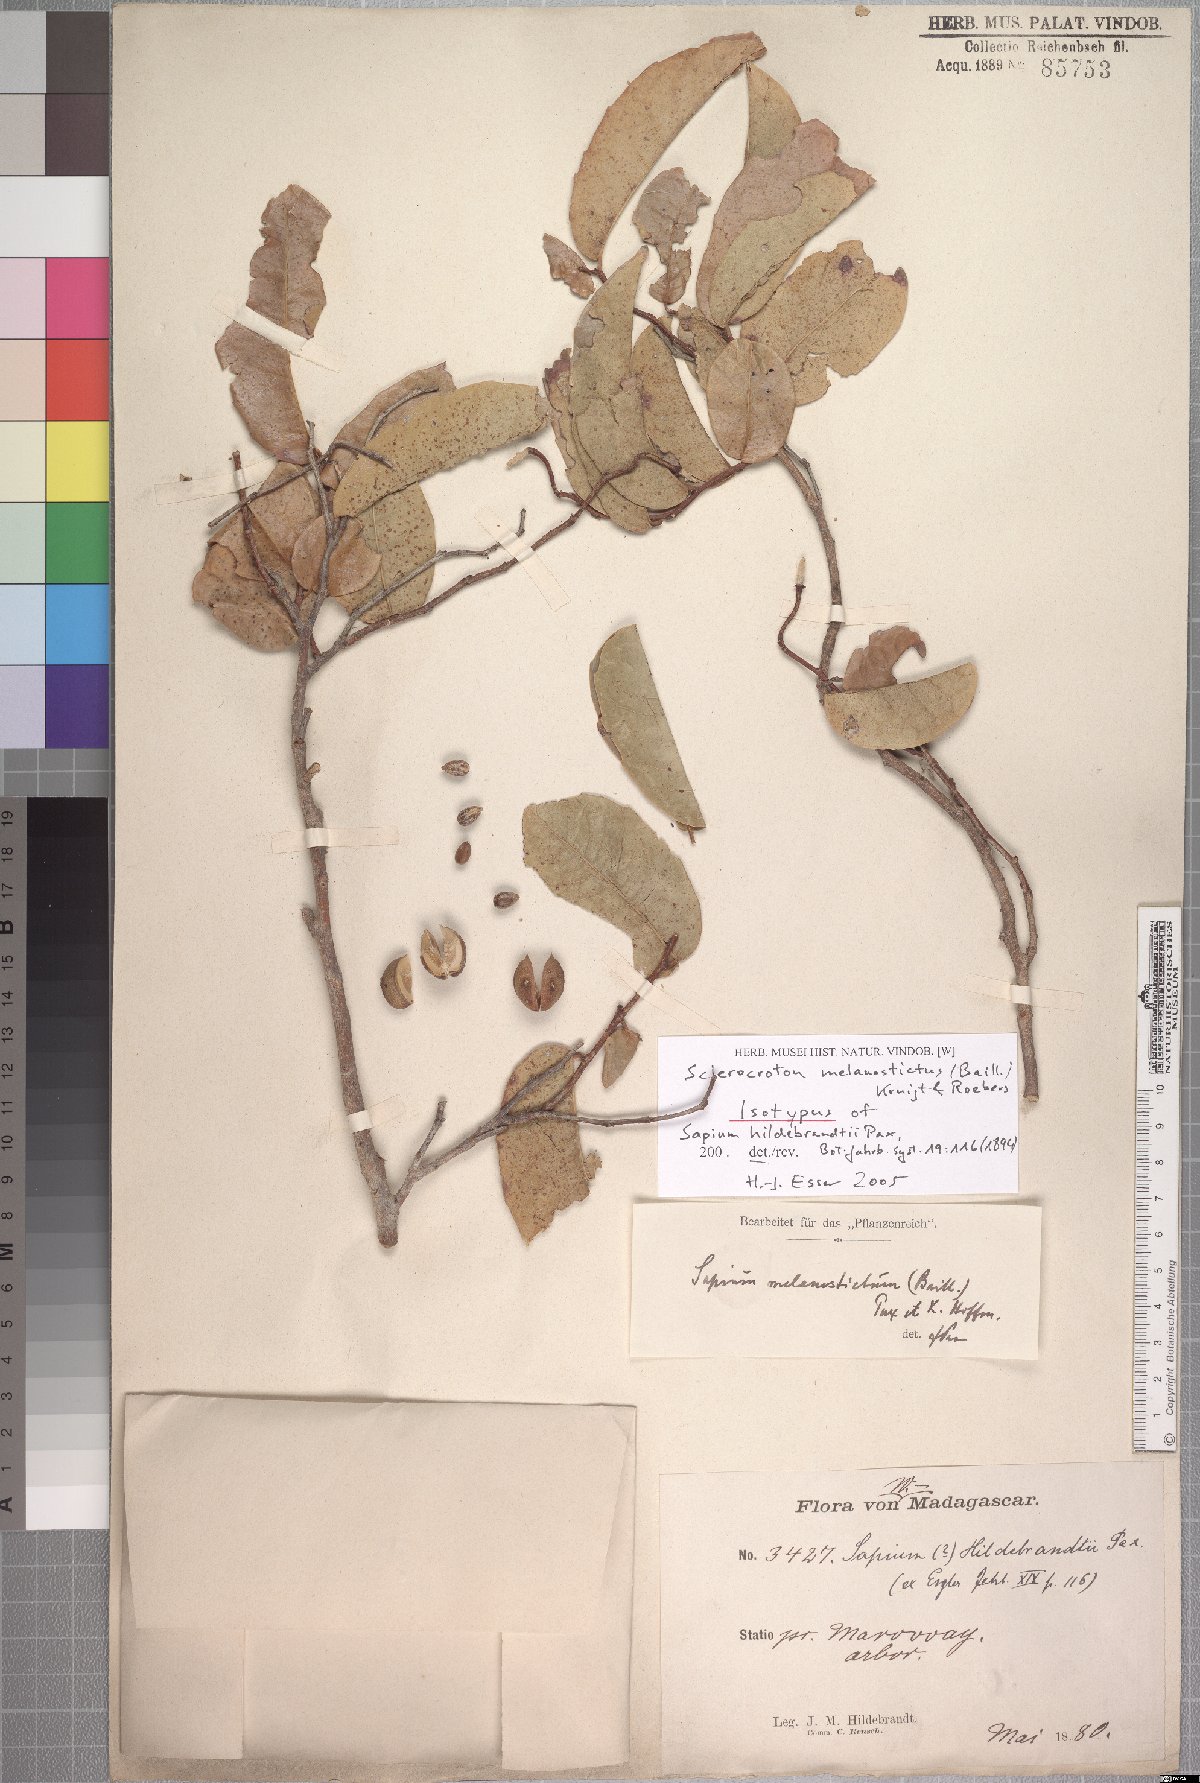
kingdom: Plantae
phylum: Tracheophyta
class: Magnoliopsida
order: Malpighiales
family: Euphorbiaceae
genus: Sclerocroton
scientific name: Sclerocroton melanostictus
